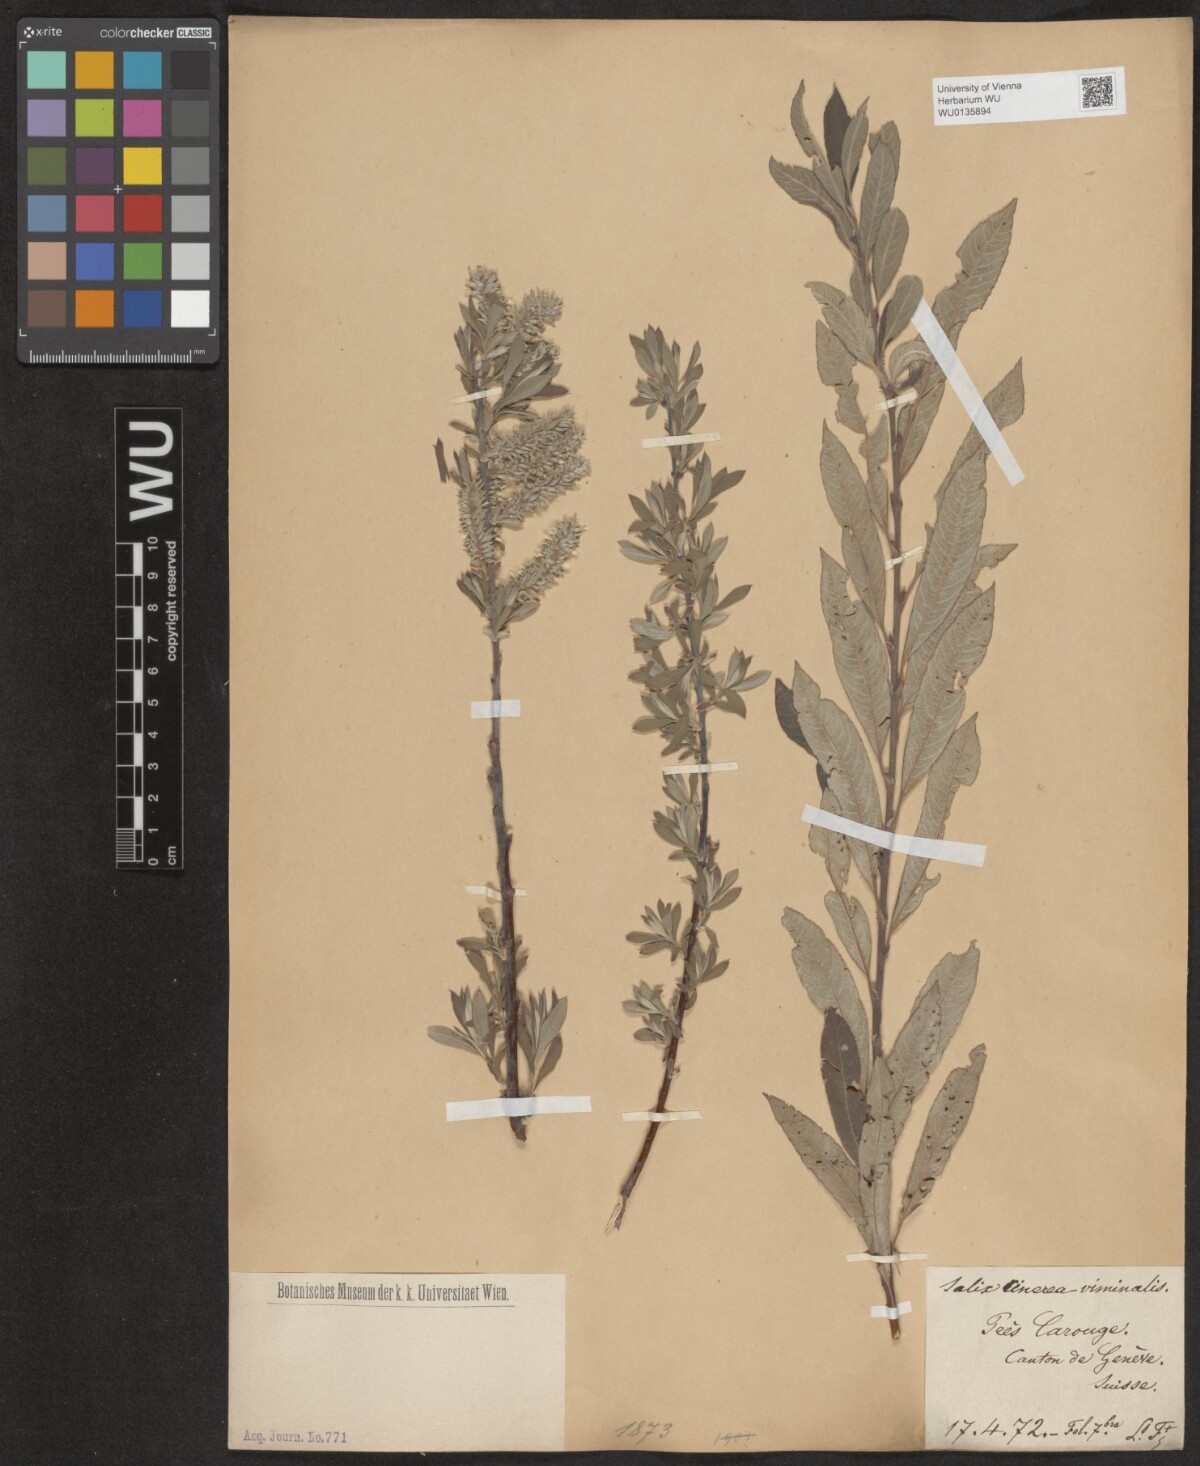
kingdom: Plantae
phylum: Tracheophyta
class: Magnoliopsida
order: Malpighiales
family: Salicaceae
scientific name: Salicaceae
